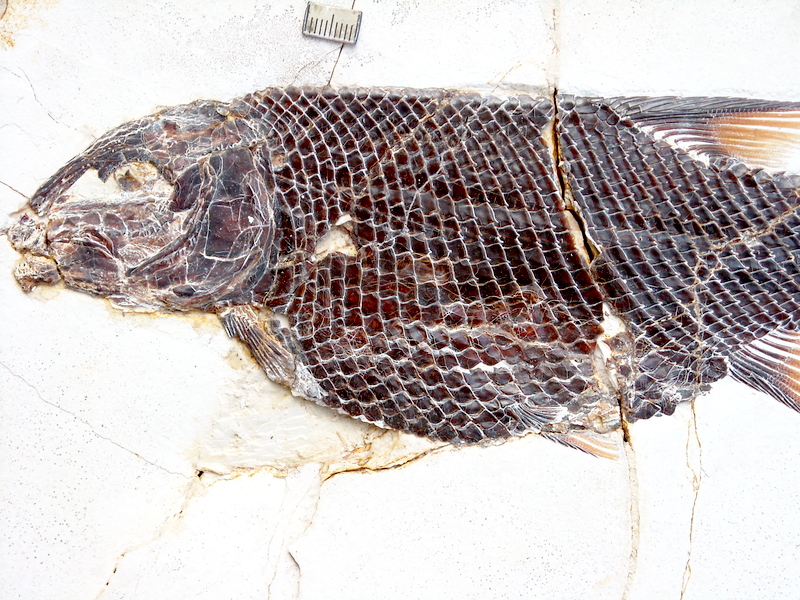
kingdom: Animalia
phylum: Chordata
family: Callipurbeckiidae
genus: Macrosemimimus
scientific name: Macrosemimimus fegerti
